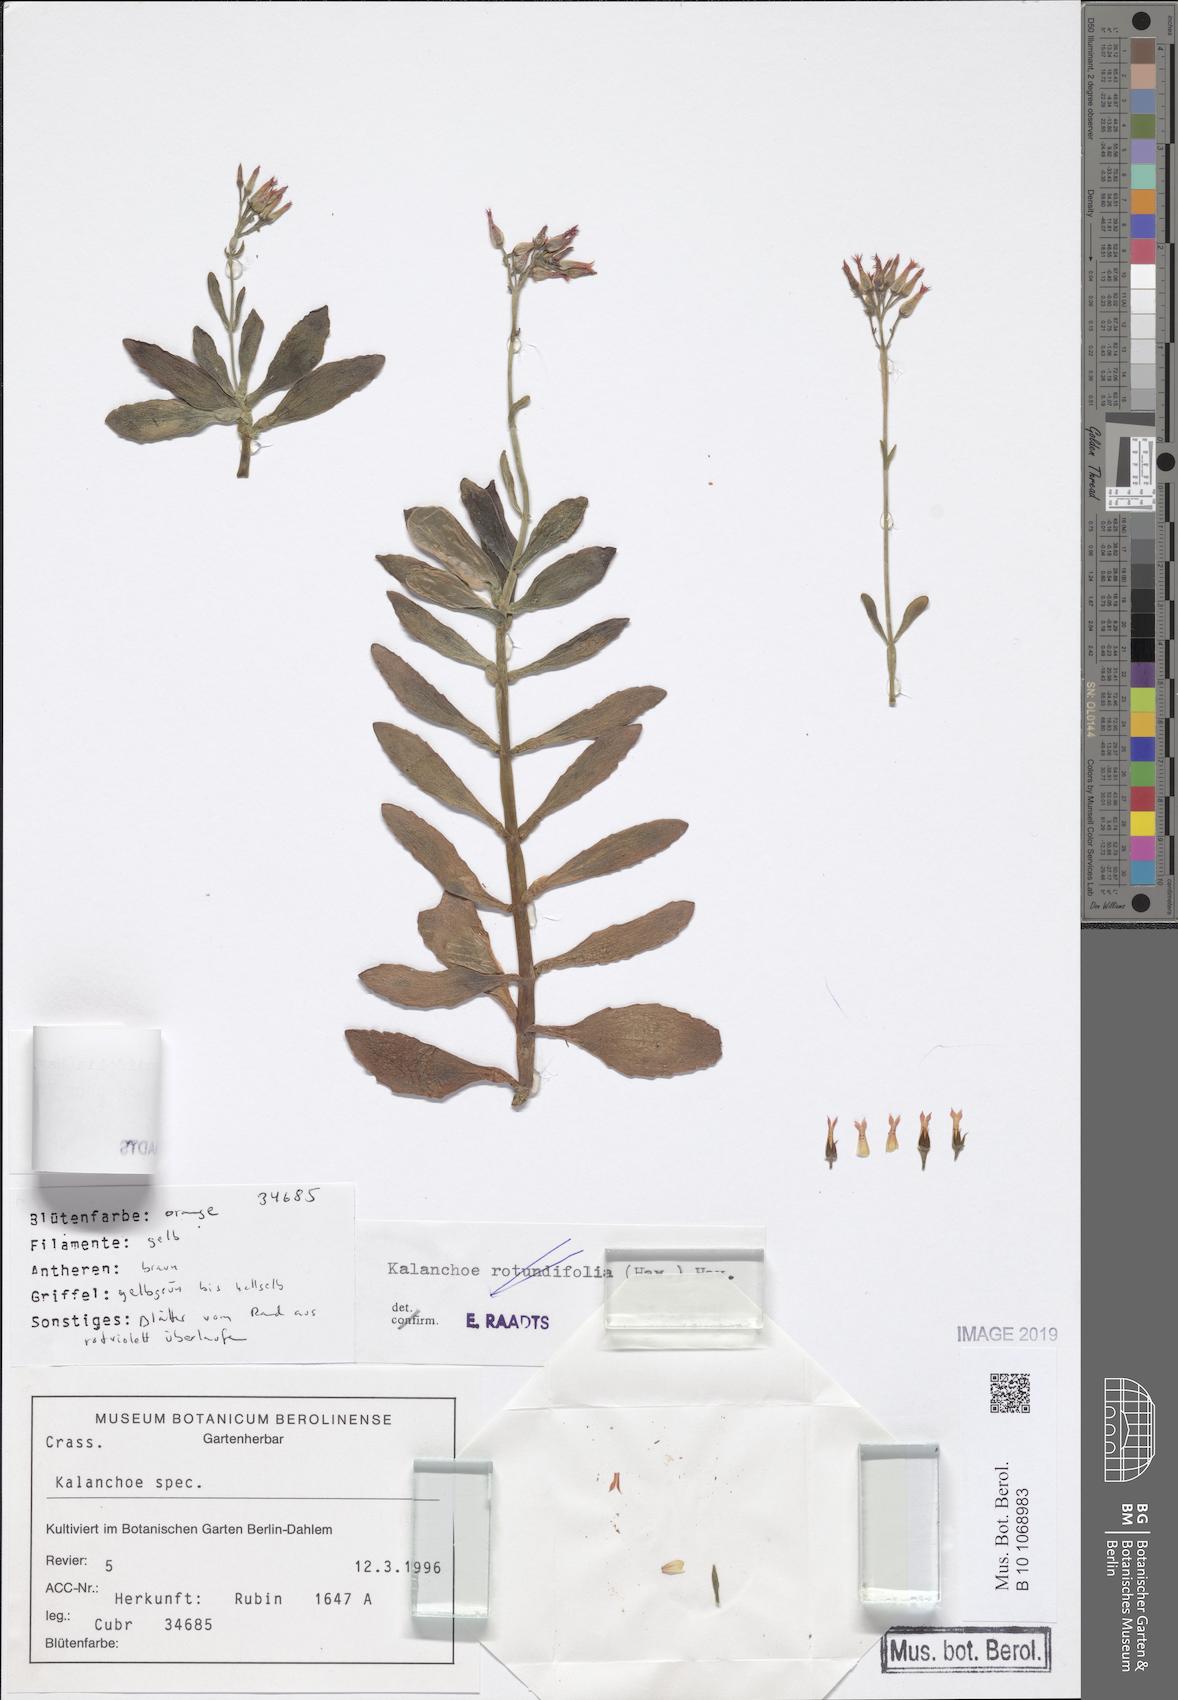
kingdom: Plantae
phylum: Tracheophyta
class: Magnoliopsida
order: Saxifragales
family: Crassulaceae
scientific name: Crassulaceae
